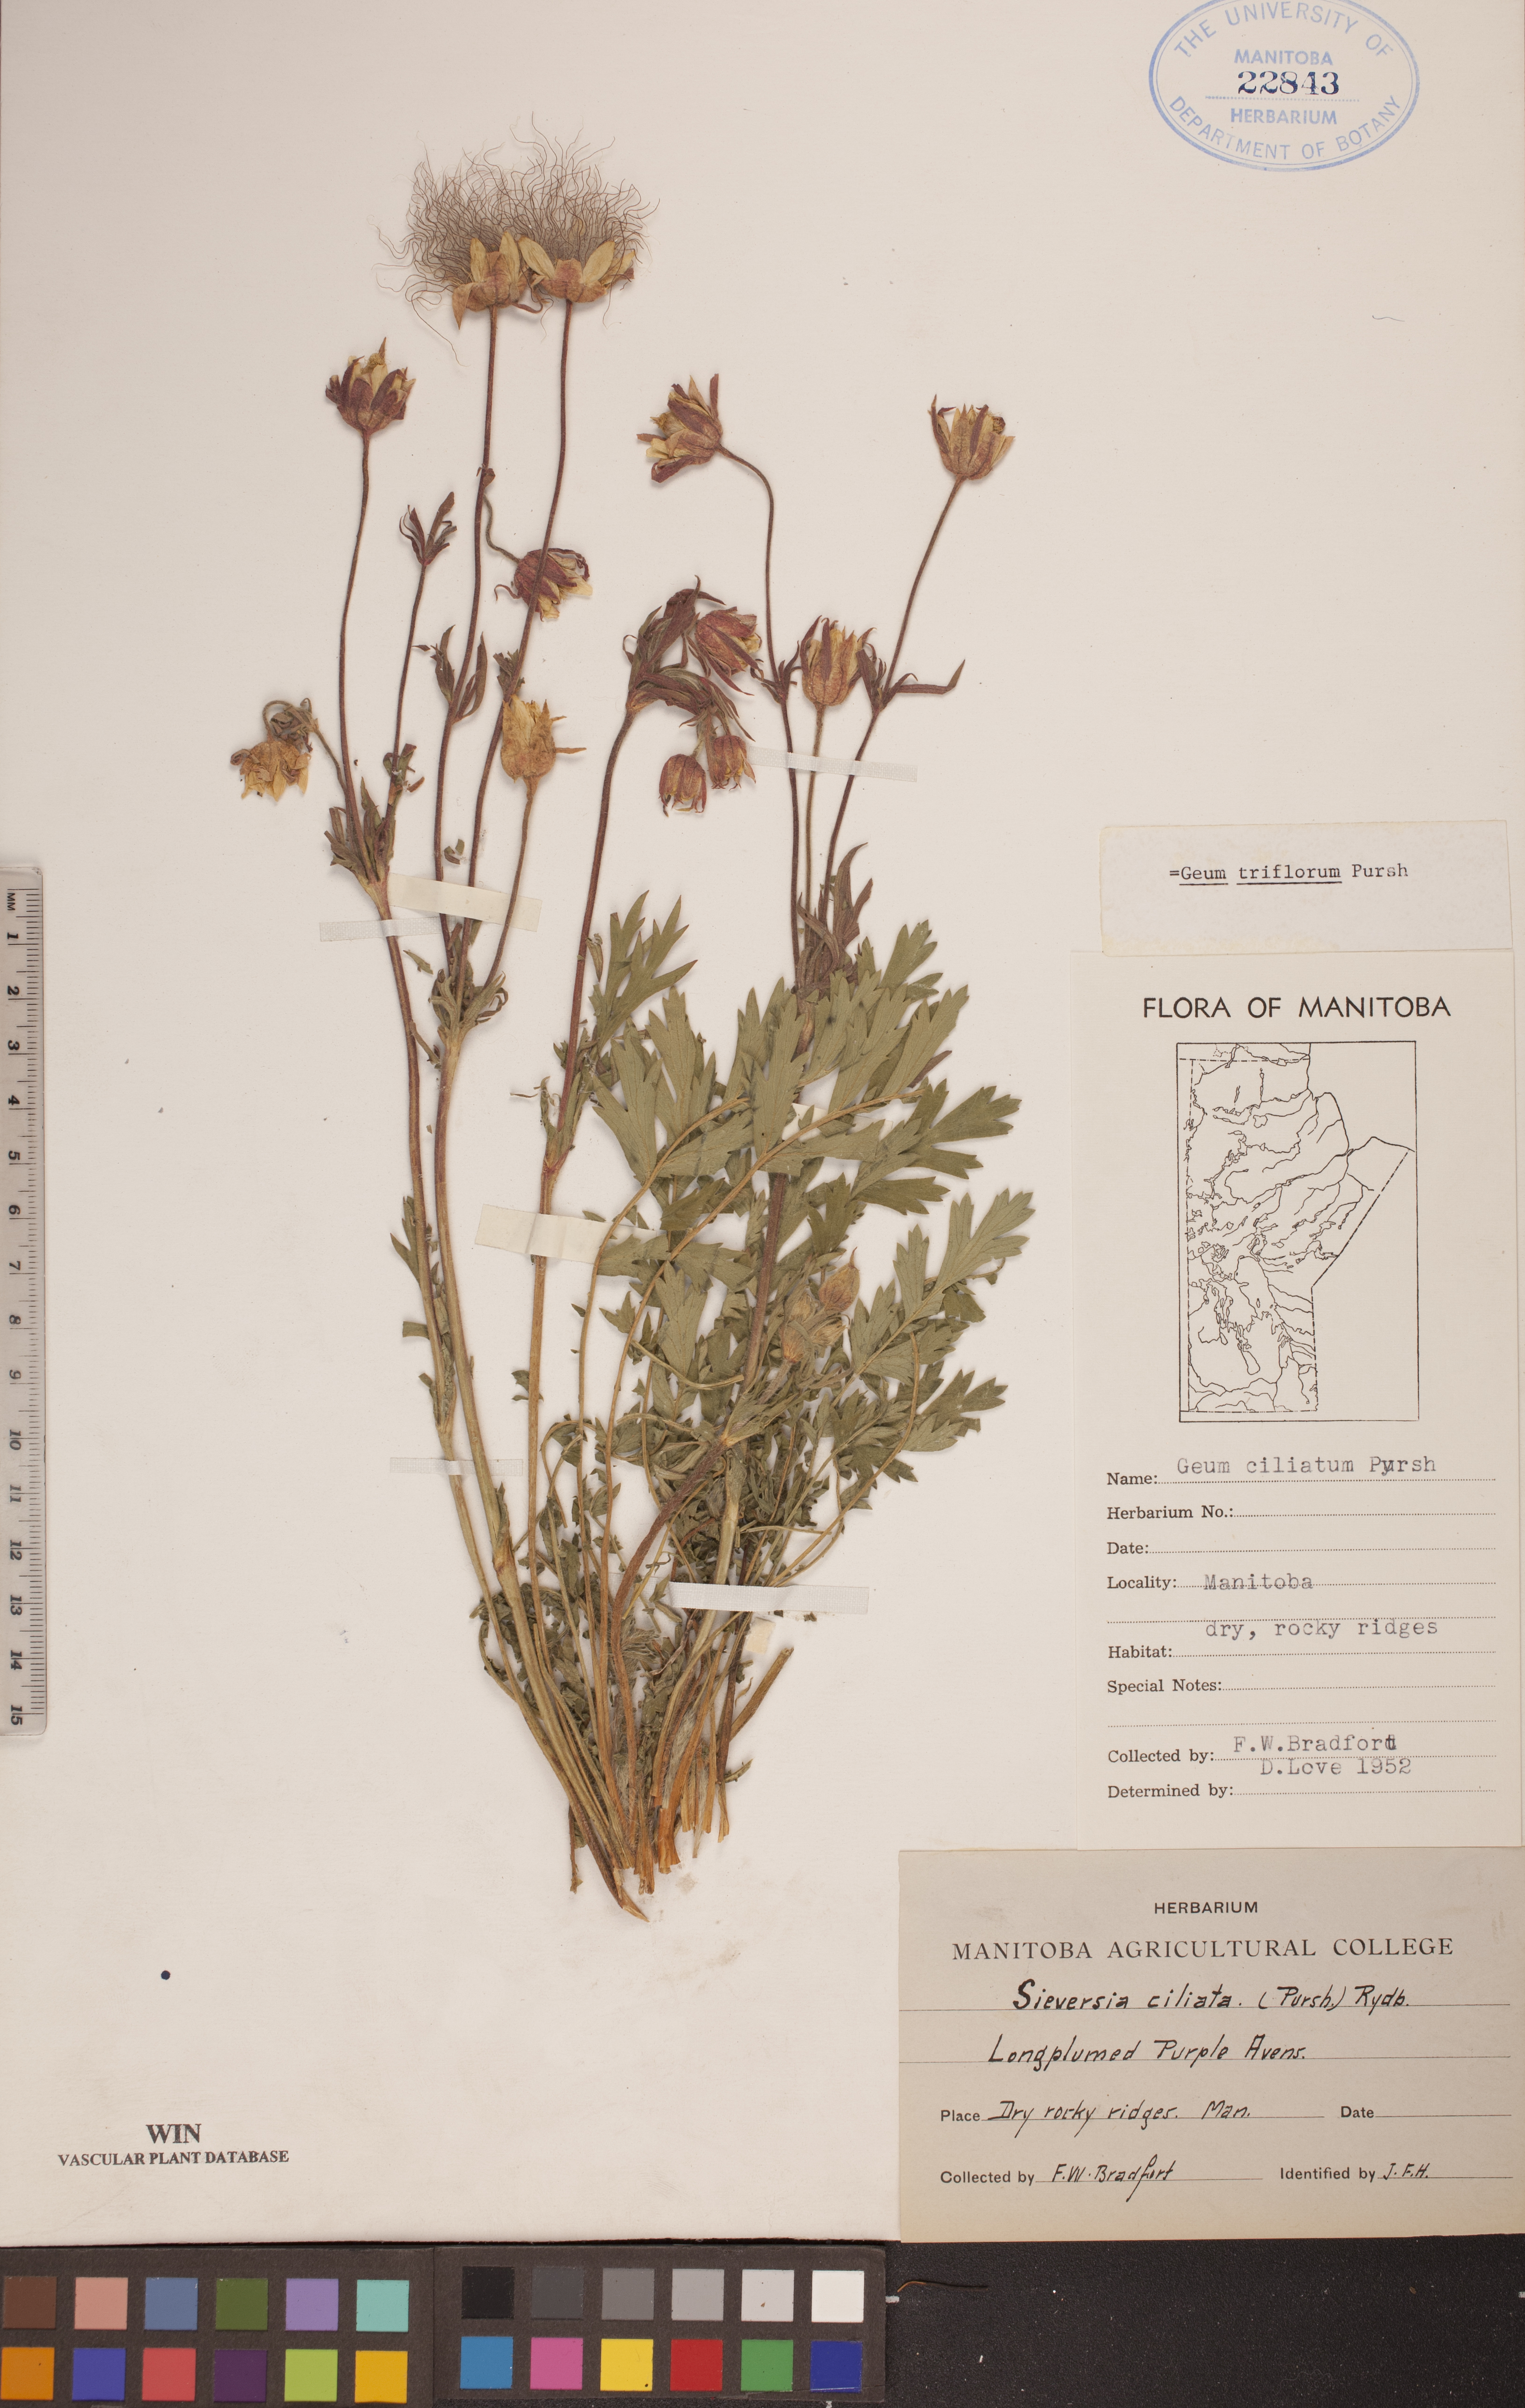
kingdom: Plantae
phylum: Tracheophyta
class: Magnoliopsida
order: Rosales
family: Rosaceae
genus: Geum
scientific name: Geum triflorum
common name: Old man's whiskers
